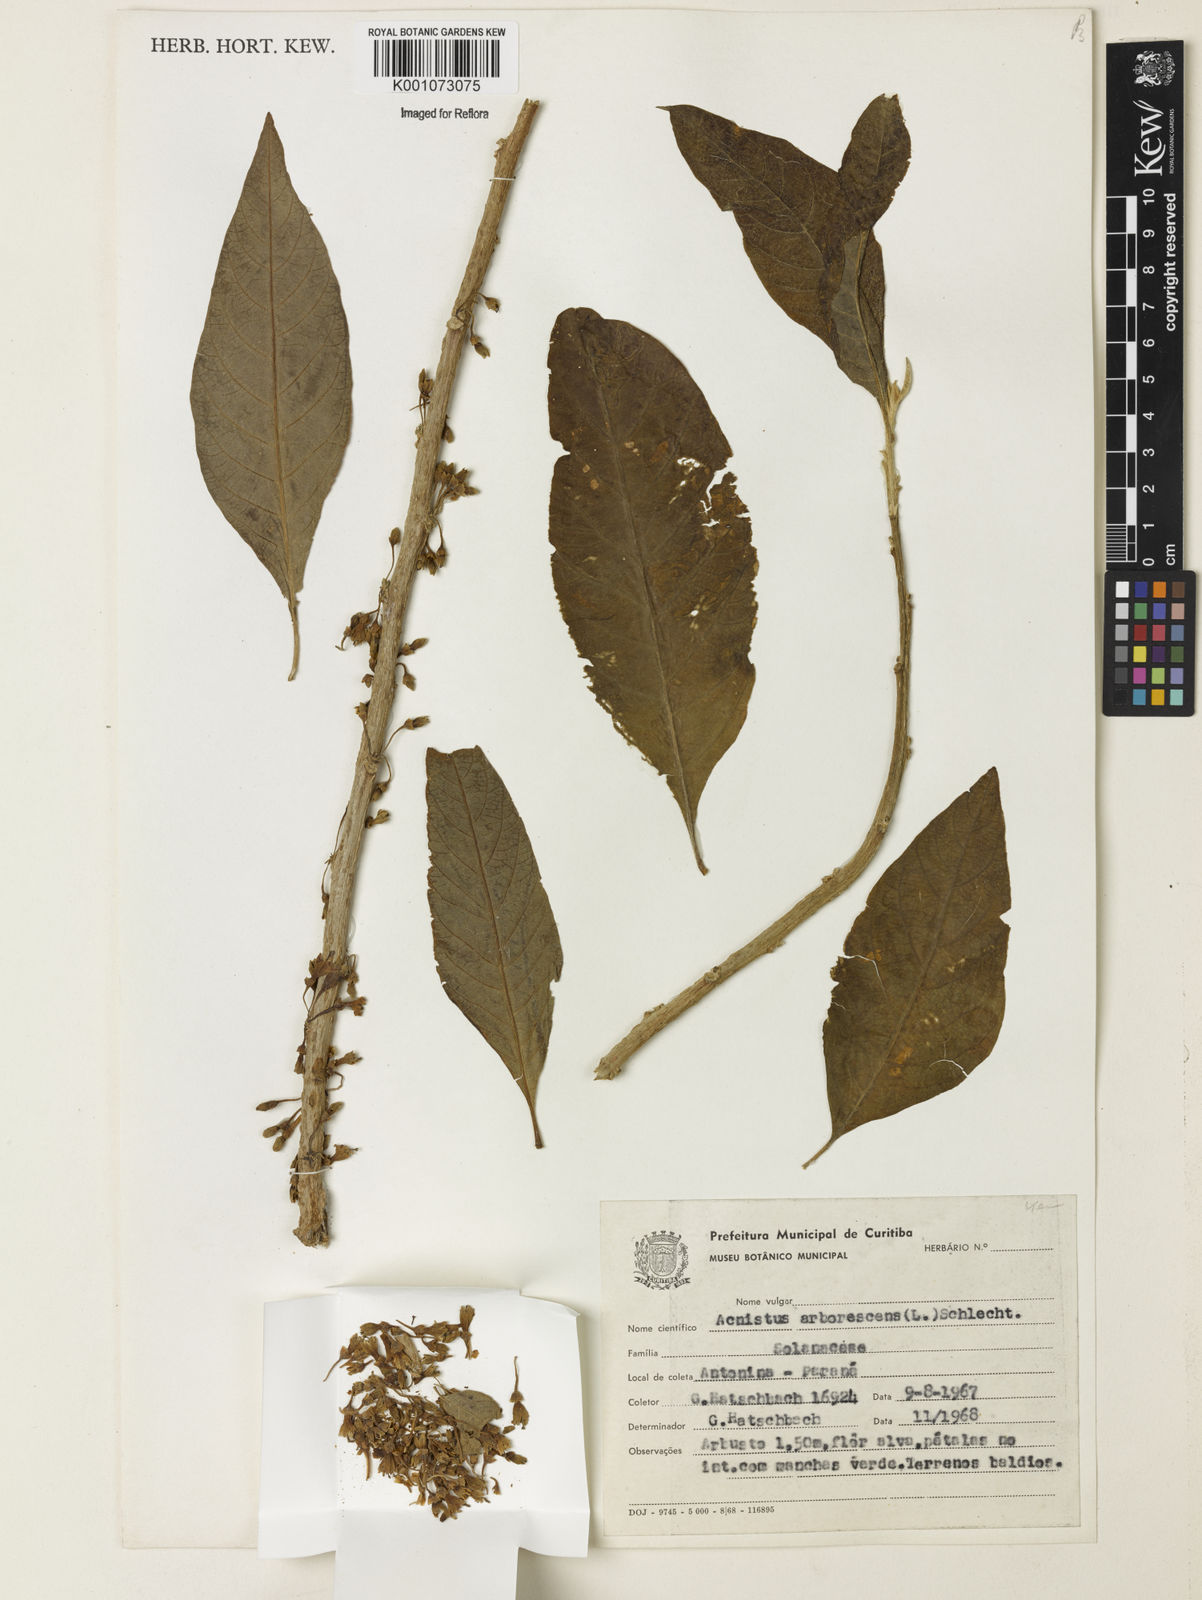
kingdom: Plantae
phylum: Tracheophyta
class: Magnoliopsida
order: Solanales
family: Solanaceae
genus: Iochroma
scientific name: Iochroma arborescens
